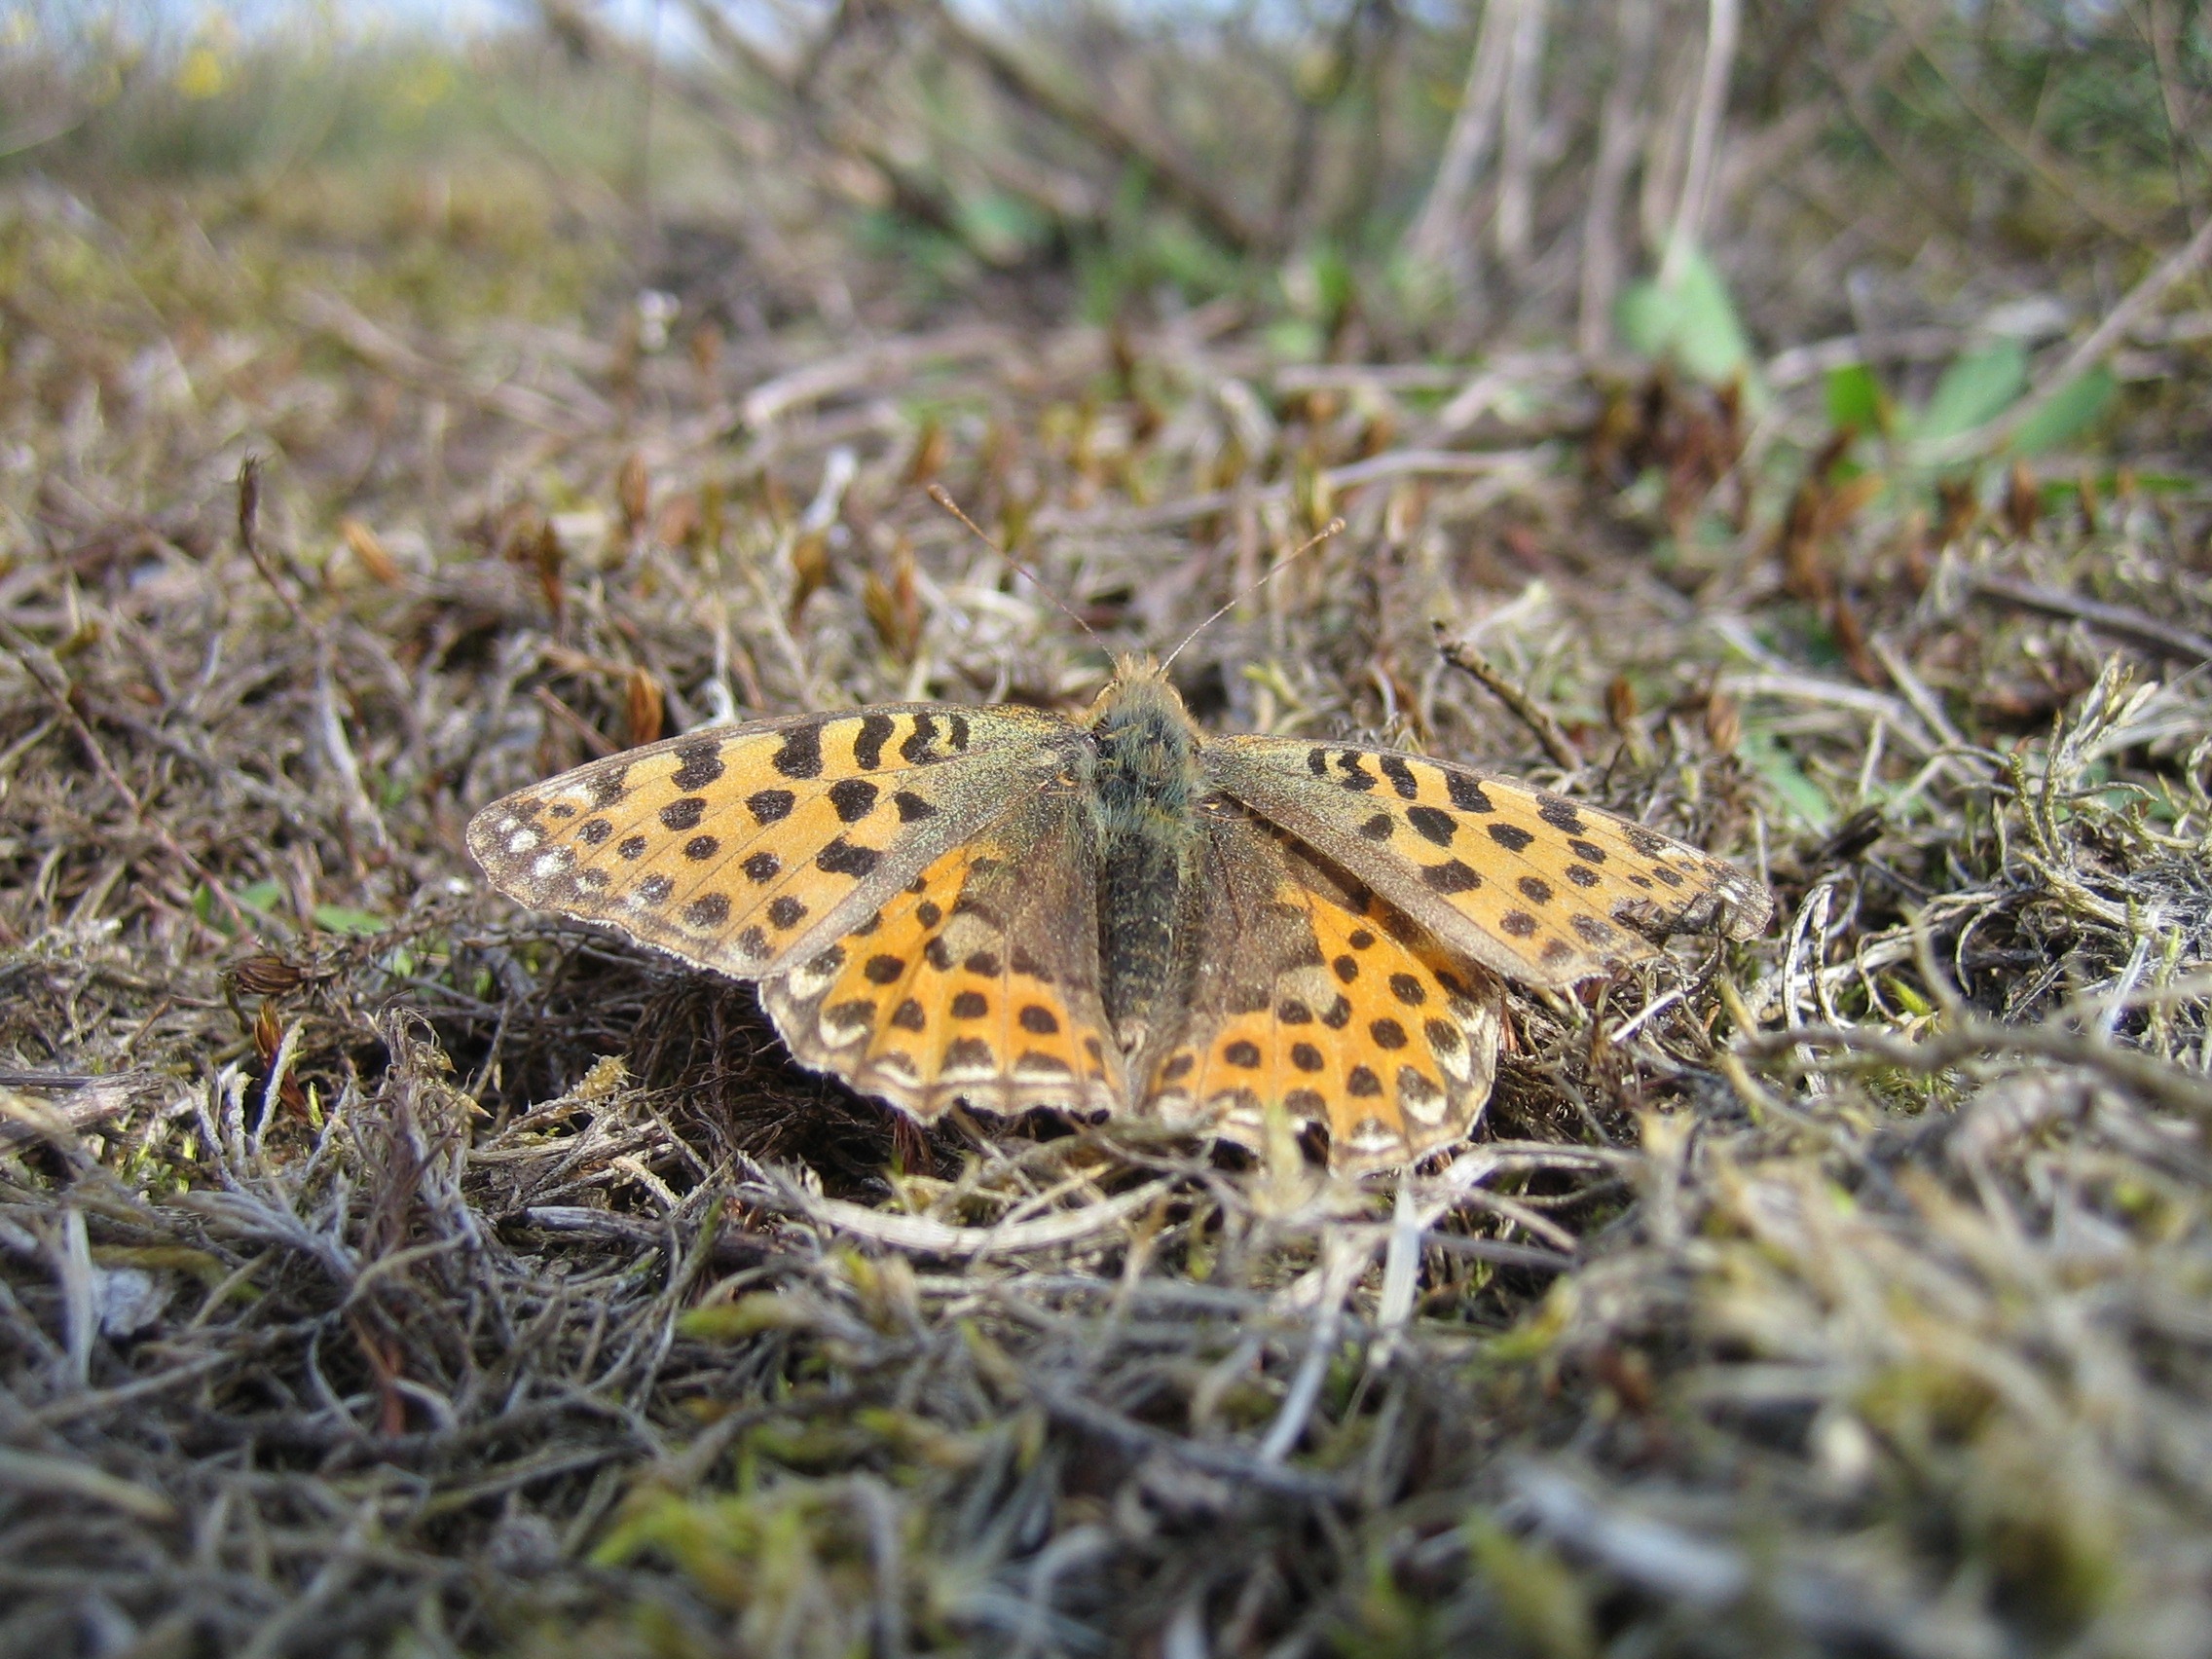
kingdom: Animalia
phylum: Arthropoda
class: Insecta
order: Lepidoptera
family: Nymphalidae
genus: Issoria
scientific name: Issoria lathonia
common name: Storplettet perlemorsommerfugl
